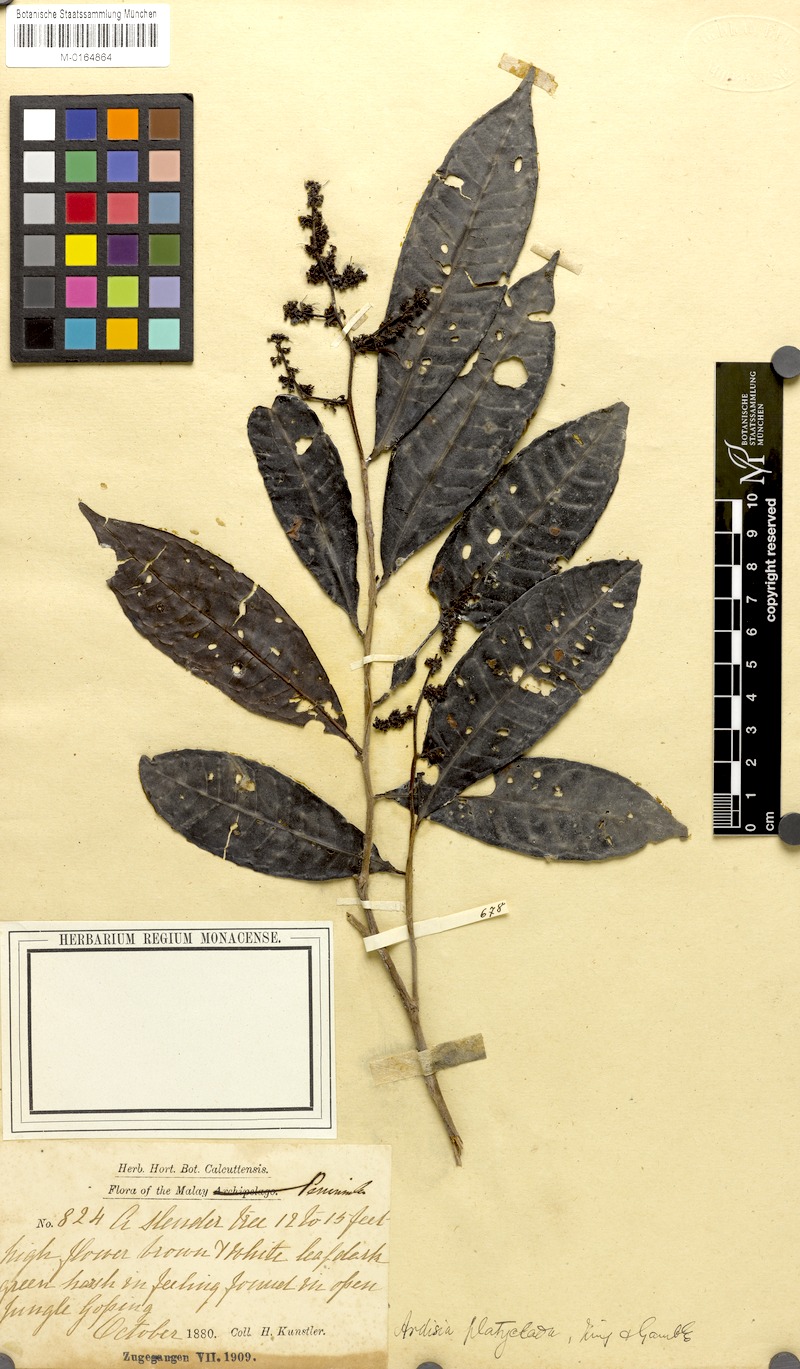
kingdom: Plantae
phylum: Tracheophyta
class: Magnoliopsida
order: Ericales
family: Primulaceae
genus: Ardisia
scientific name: Ardisia pterocaulis
